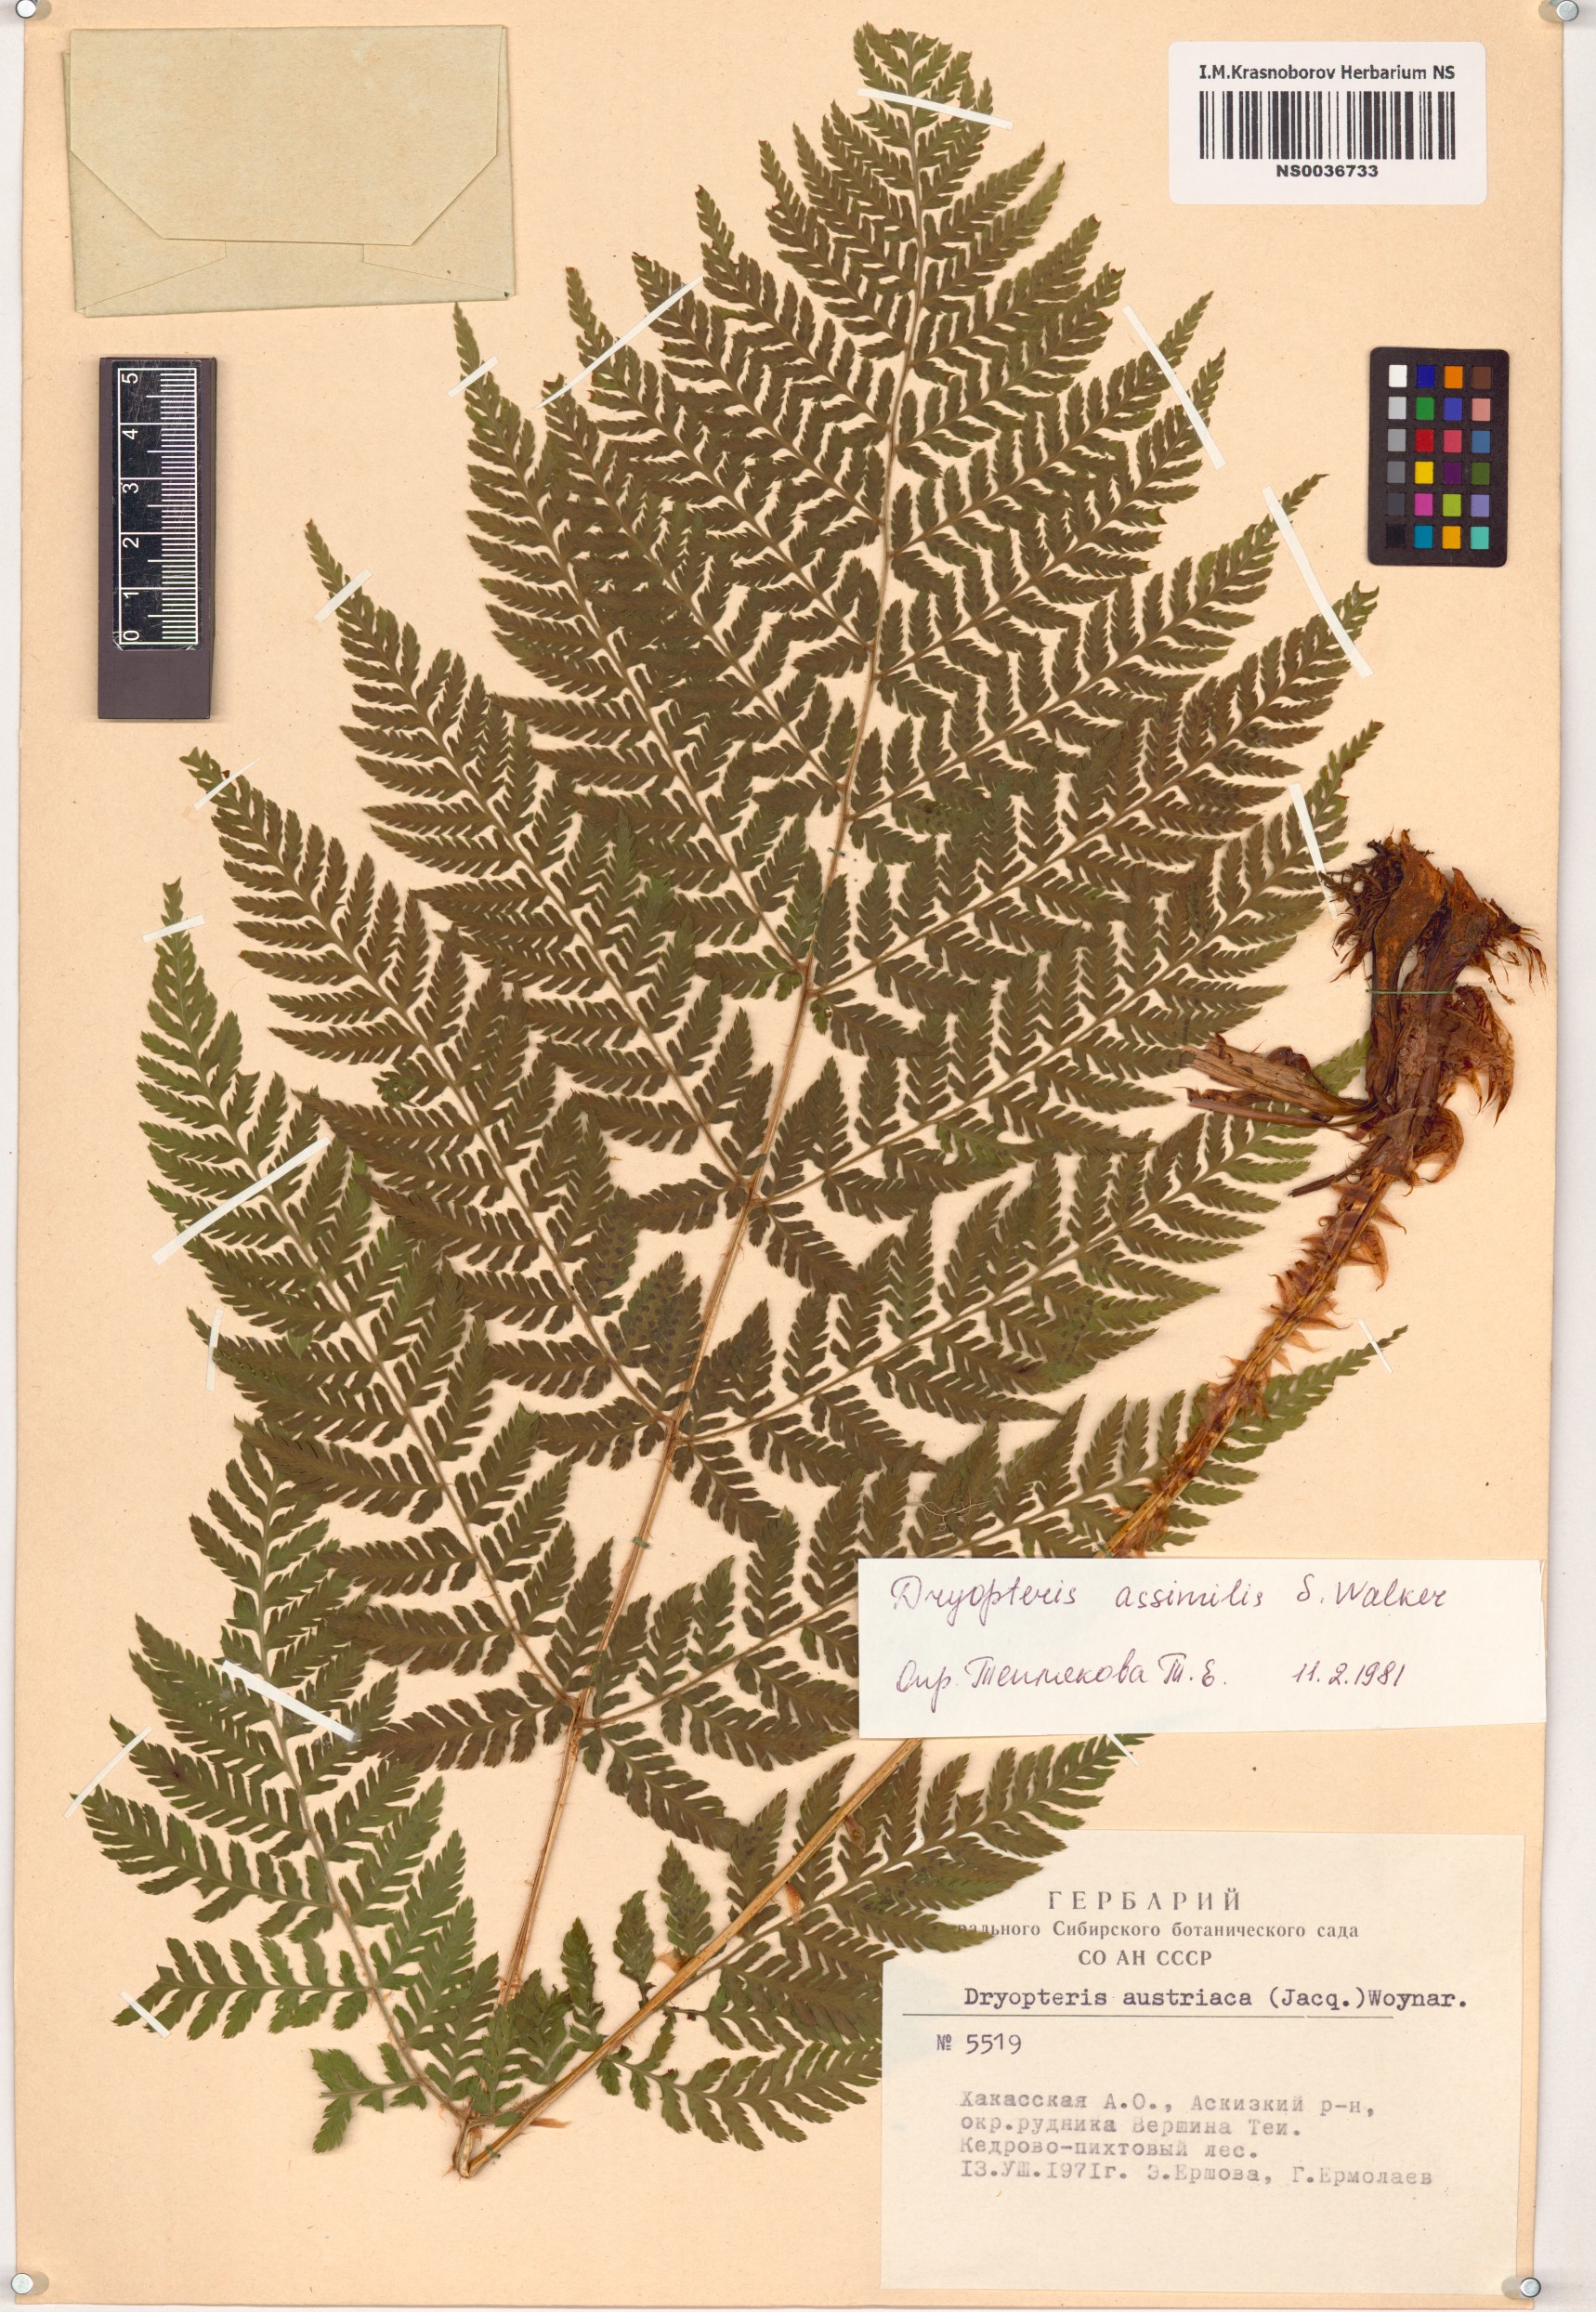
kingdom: Plantae
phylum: Tracheophyta
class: Polypodiopsida
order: Polypodiales
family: Dryopteridaceae
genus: Dryopteris
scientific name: Dryopteris expansa
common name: Northern buckler fern
